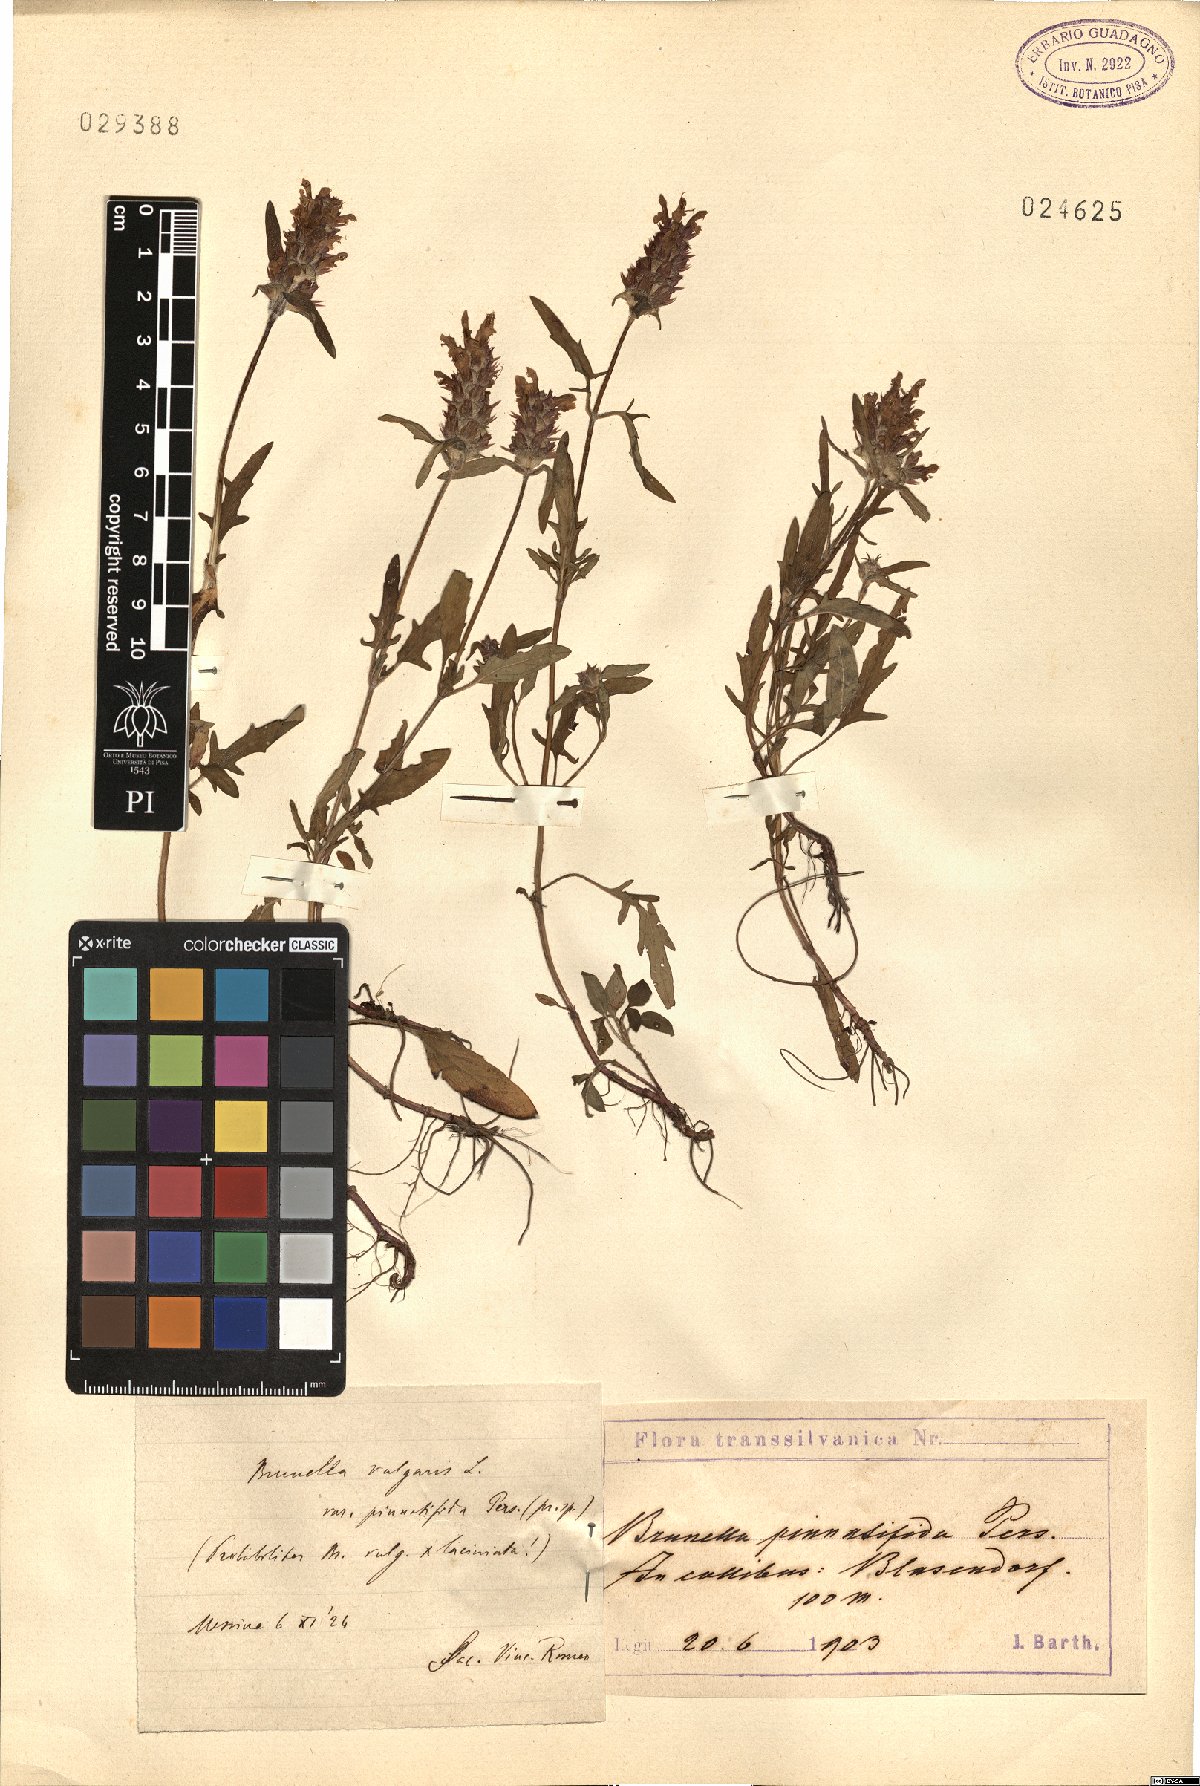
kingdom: Plantae
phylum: Tracheophyta
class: Magnoliopsida
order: Lamiales
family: Lamiaceae
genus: Prunella
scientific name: Prunella intermedia
